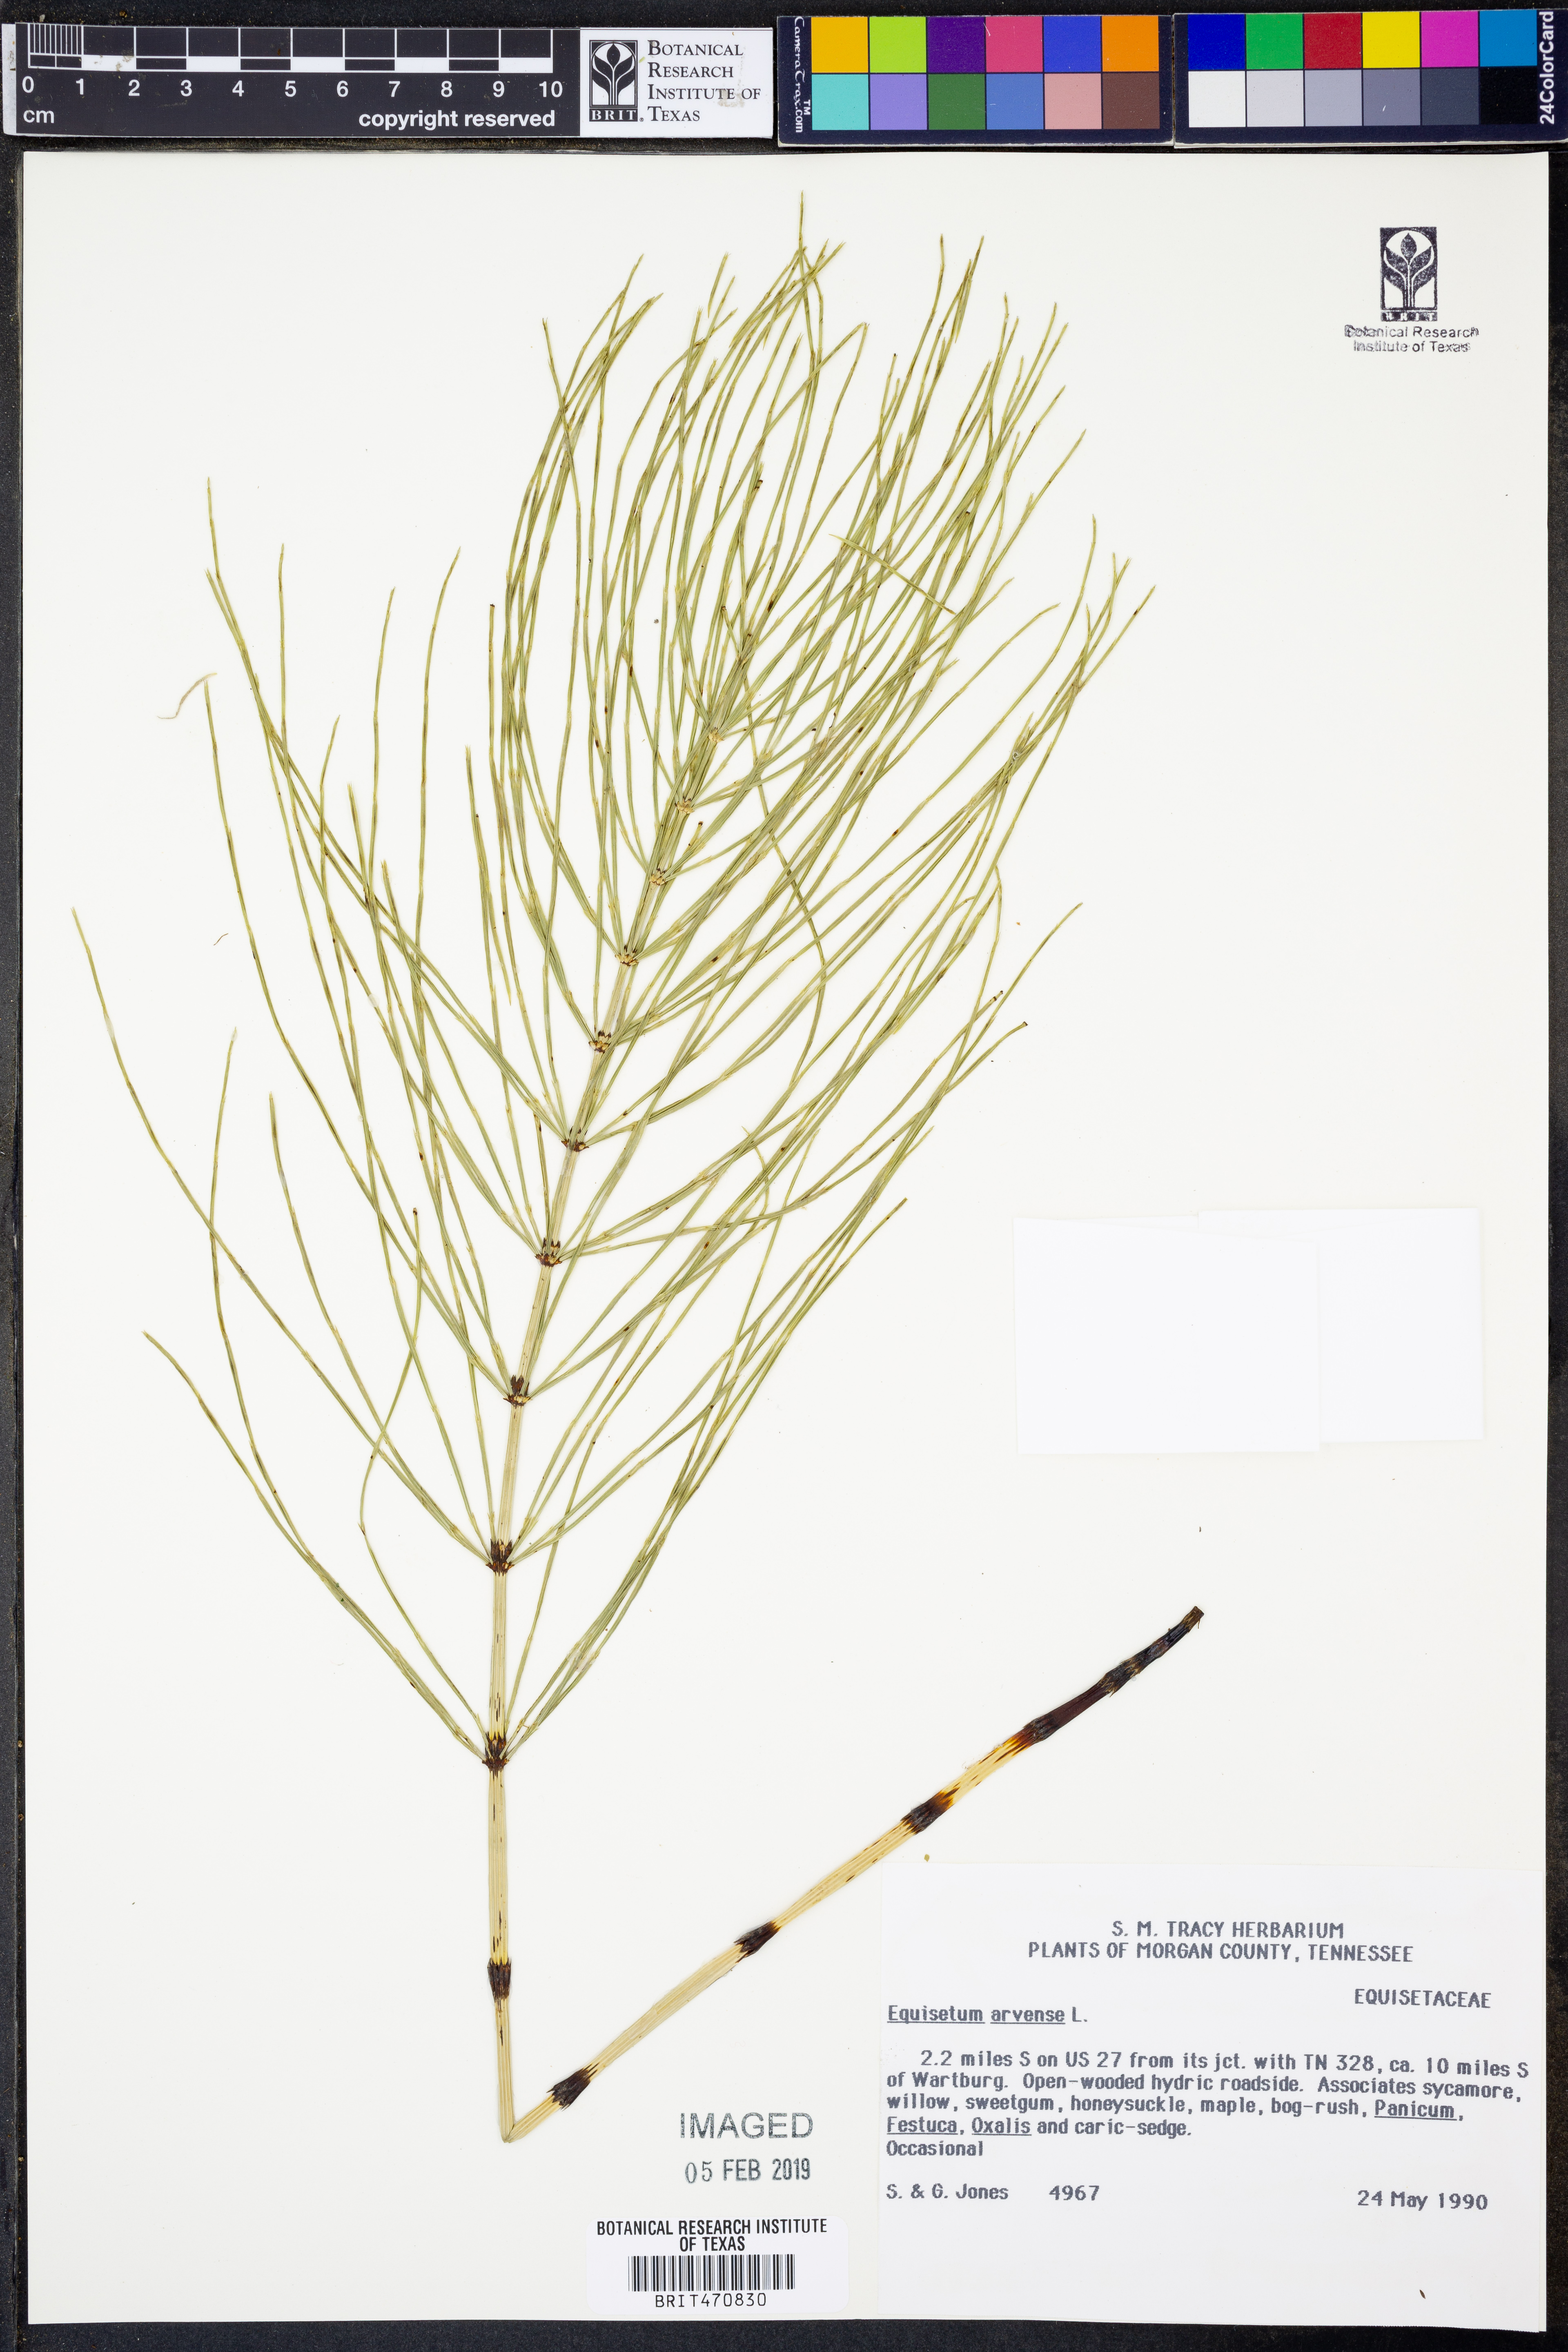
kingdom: Plantae
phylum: Tracheophyta
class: Polypodiopsida
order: Equisetales
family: Equisetaceae
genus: Equisetum
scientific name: Equisetum arvense
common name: Field horsetail
